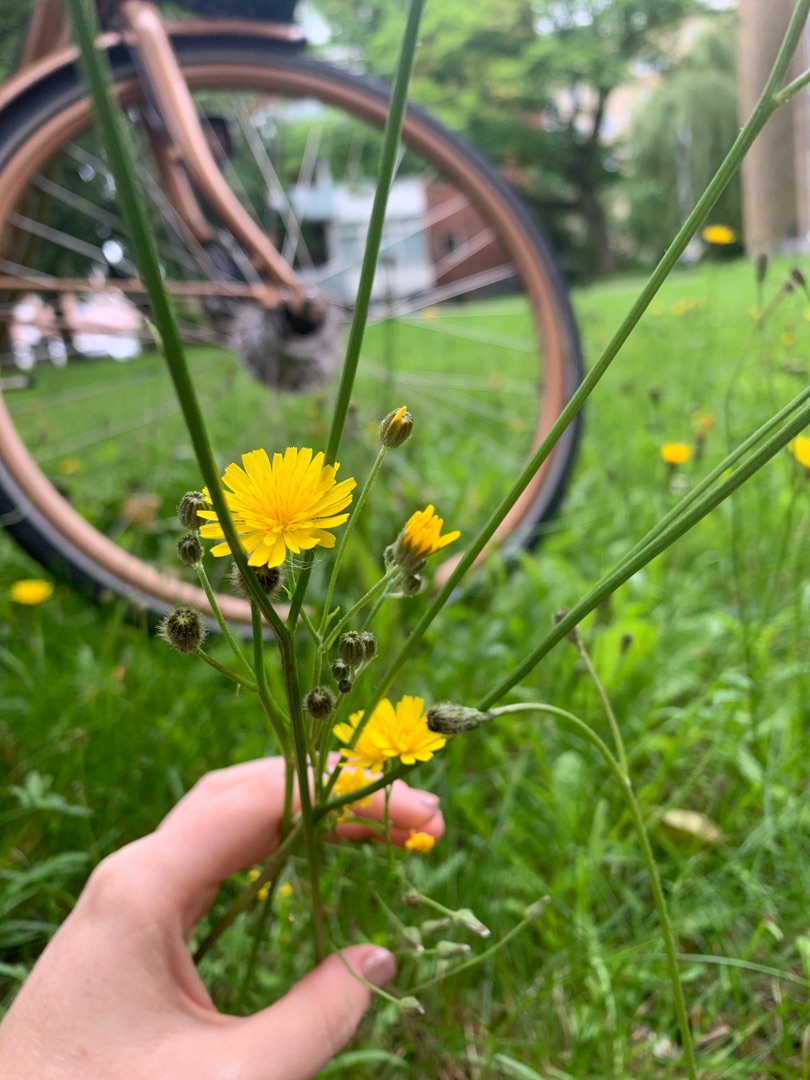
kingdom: Plantae
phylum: Tracheophyta
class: Magnoliopsida
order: Asterales
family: Asteraceae
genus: Crepis
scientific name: Crepis capillaris
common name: Grøn høgeskæg
